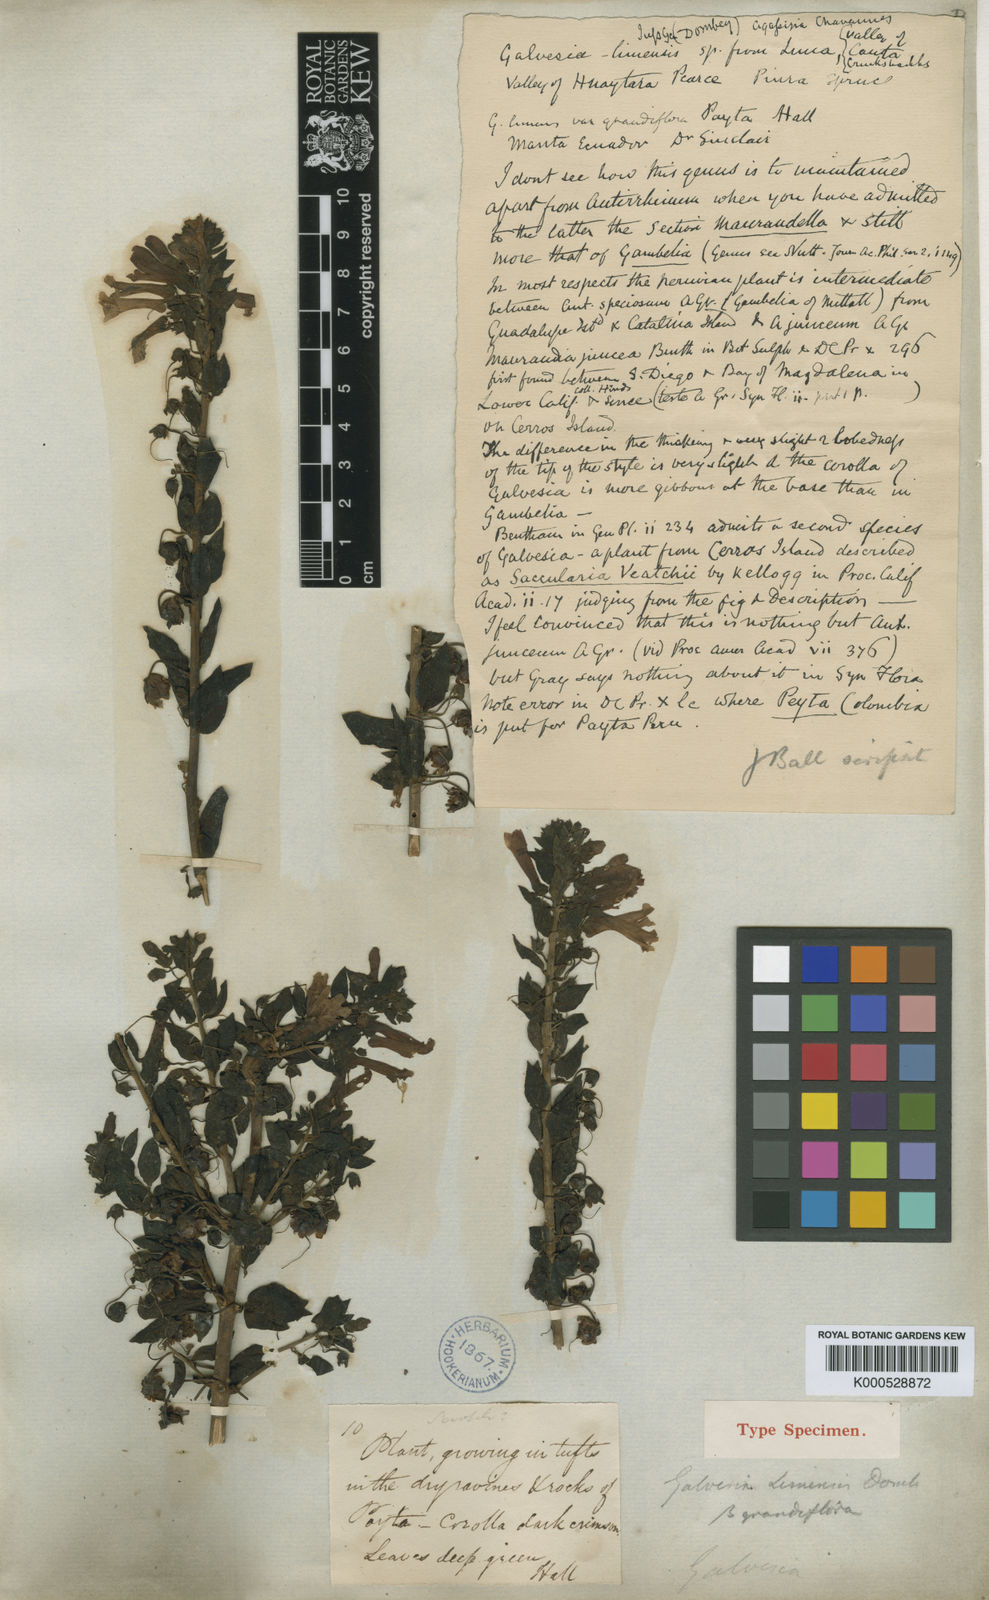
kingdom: Plantae
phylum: Tracheophyta
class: Magnoliopsida
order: Lamiales
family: Plantaginaceae
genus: Galvezia
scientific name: Galvezia fruticosa
